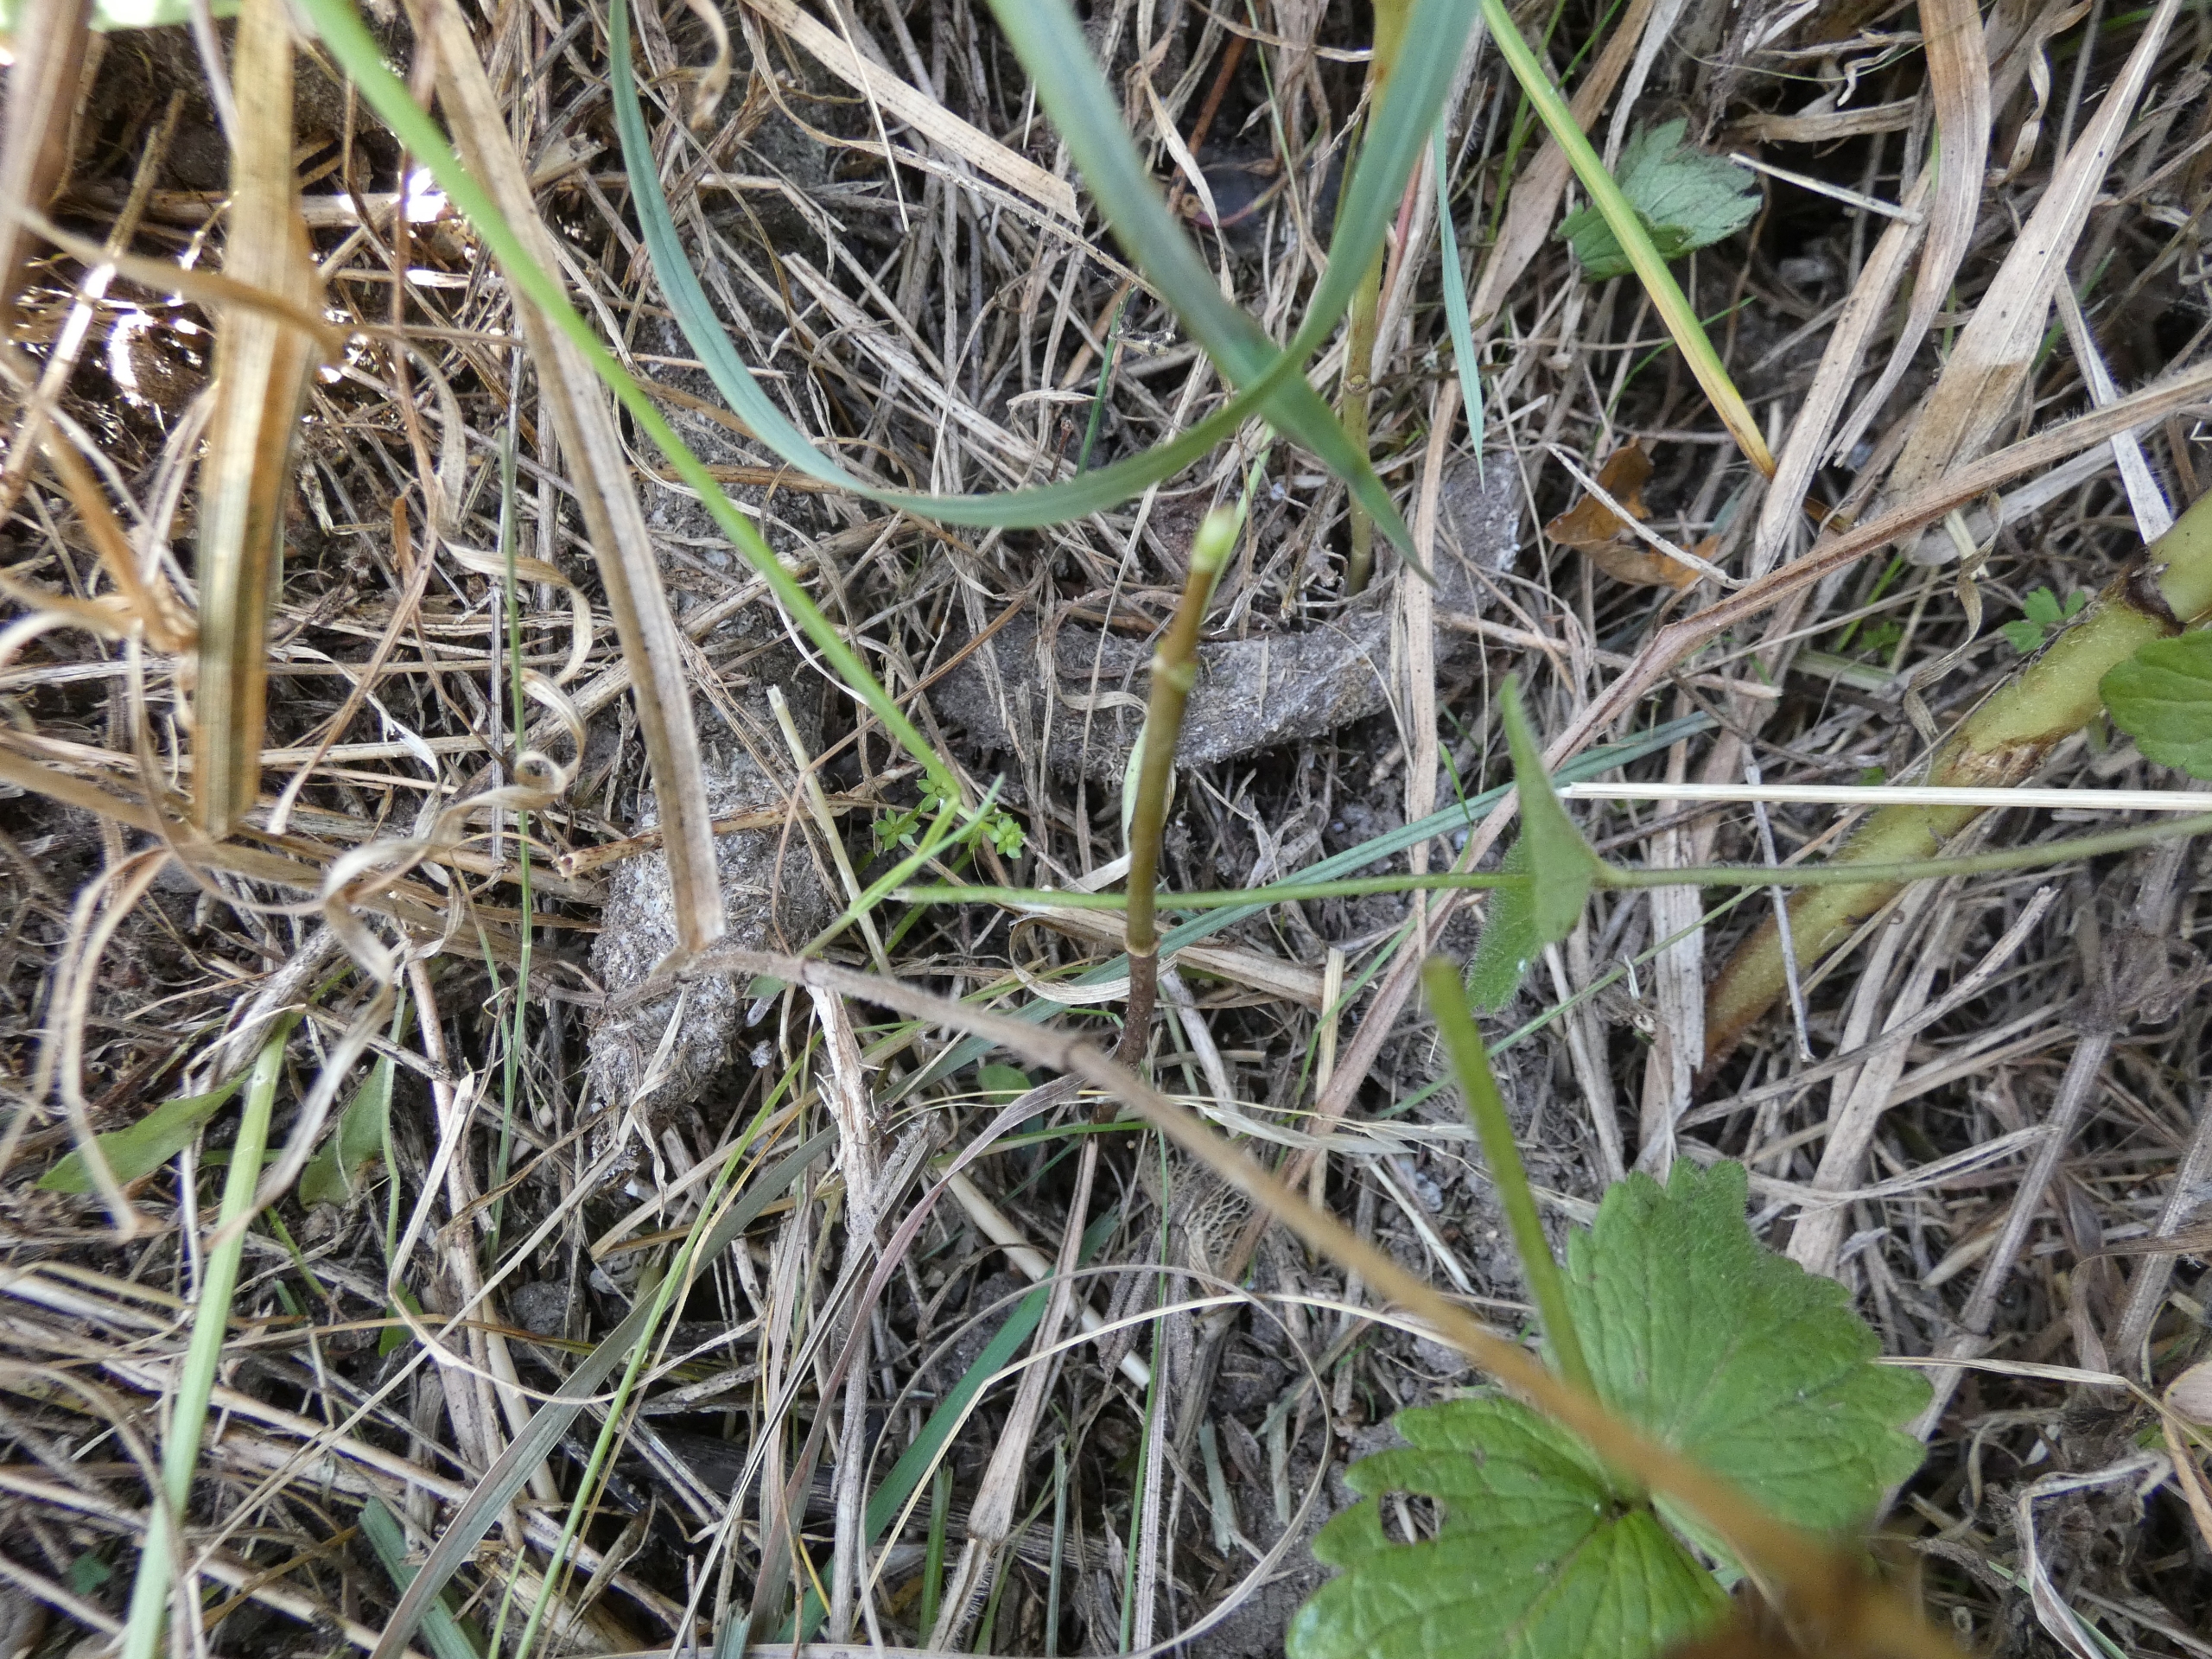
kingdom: Animalia
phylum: Arthropoda
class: Arachnida
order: Araneae
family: Atypidae
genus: Atypus
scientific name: Atypus affinis
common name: Nordlig fugleedderkop
